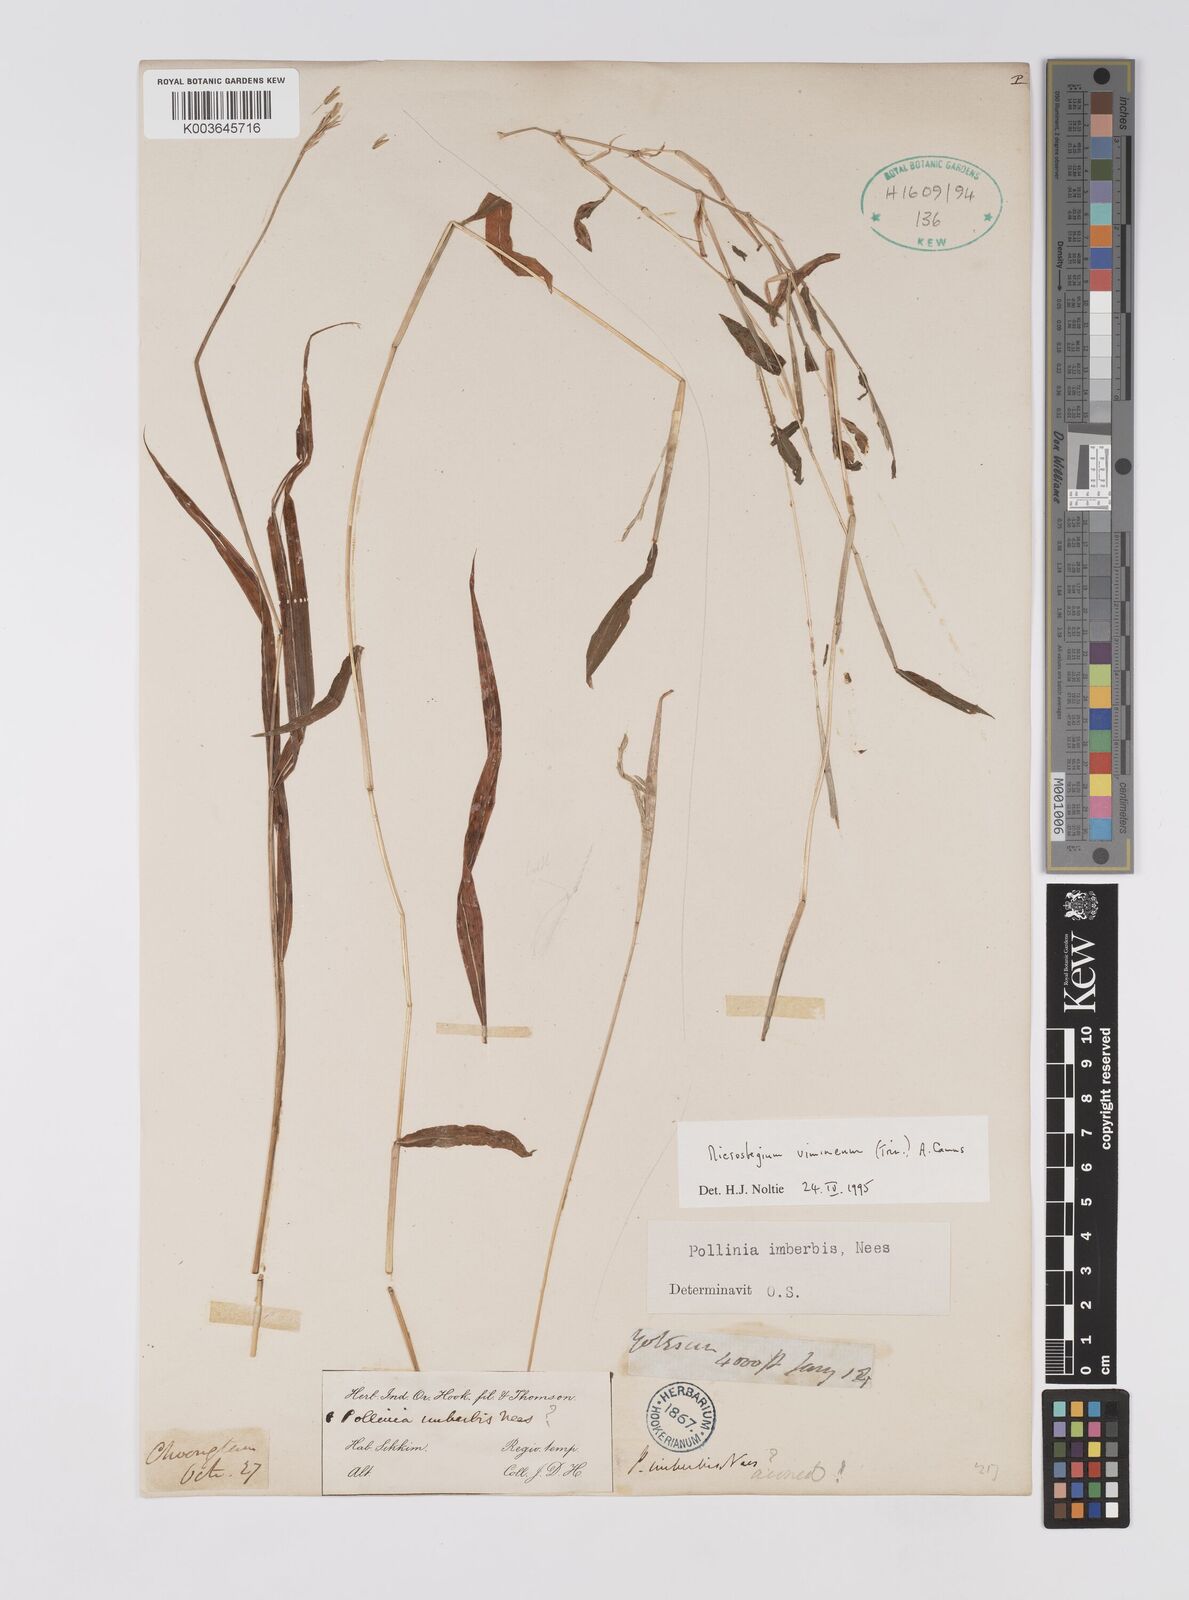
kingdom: Plantae
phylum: Tracheophyta
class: Liliopsida
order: Poales
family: Poaceae
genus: Microstegium
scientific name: Microstegium vimineum
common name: Japanese stiltgrass
